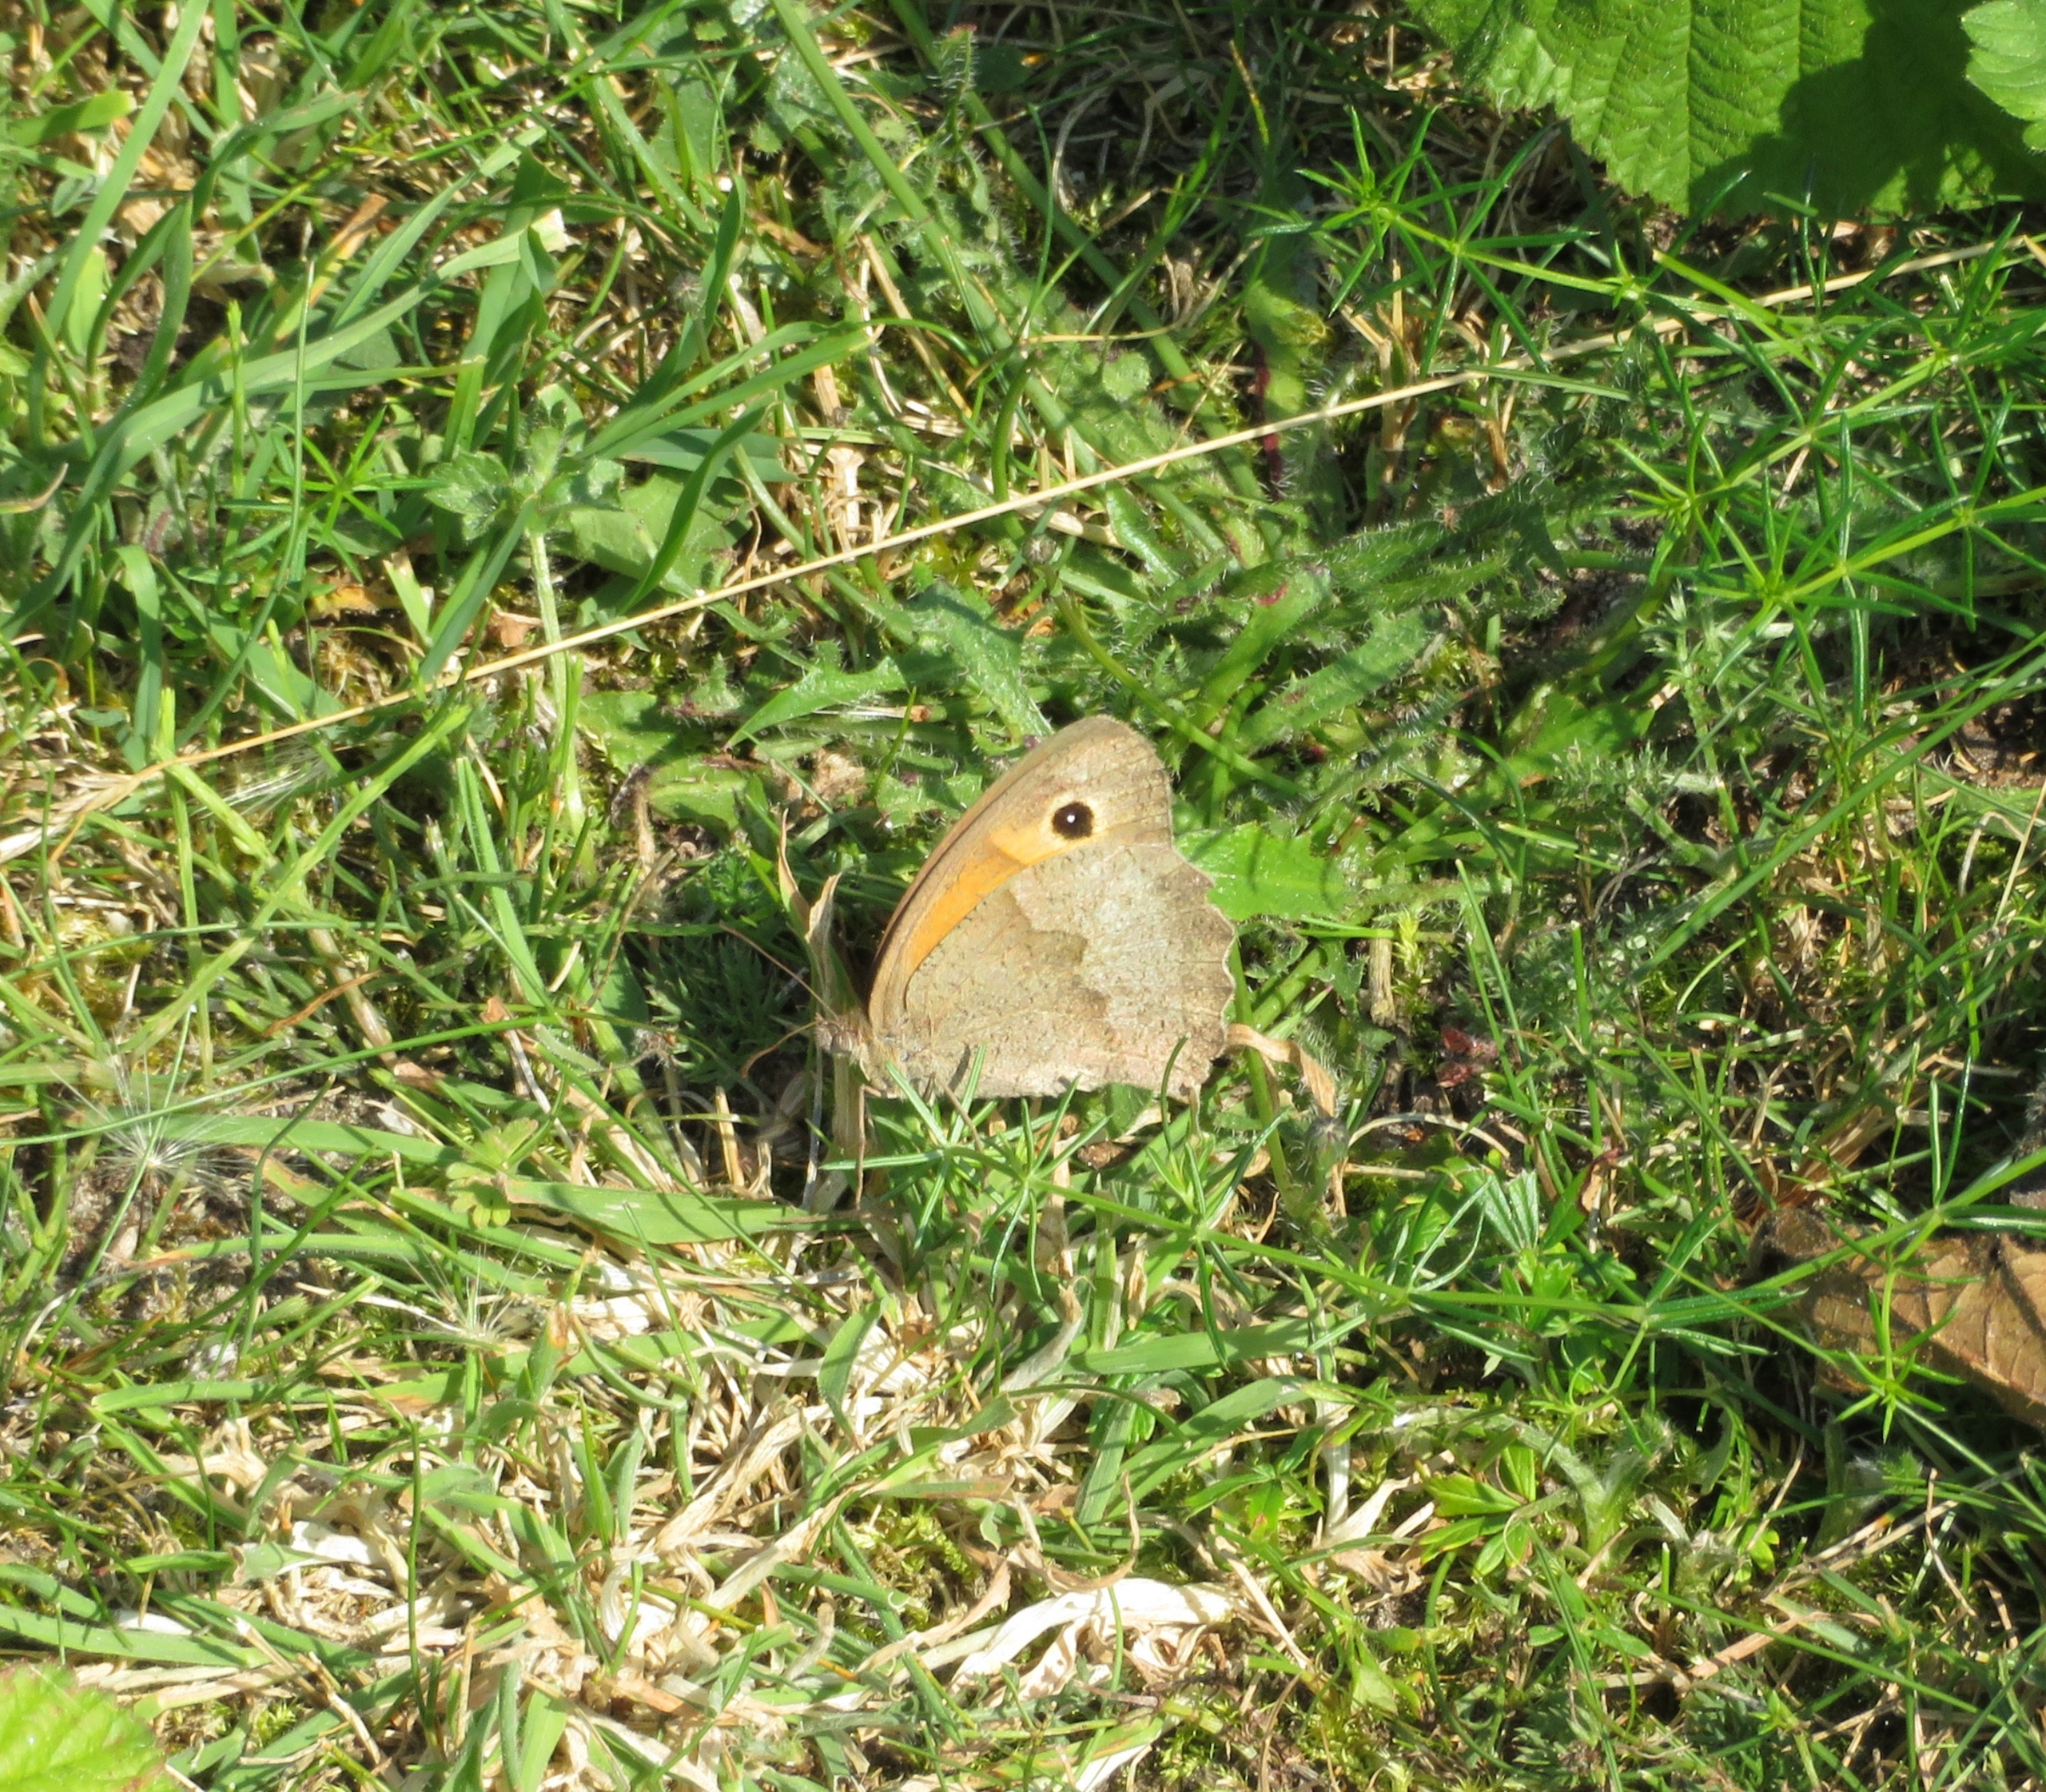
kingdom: Animalia
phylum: Arthropoda
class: Insecta
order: Lepidoptera
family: Nymphalidae
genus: Maniola
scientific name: Maniola jurtina
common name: Græsrandøje
